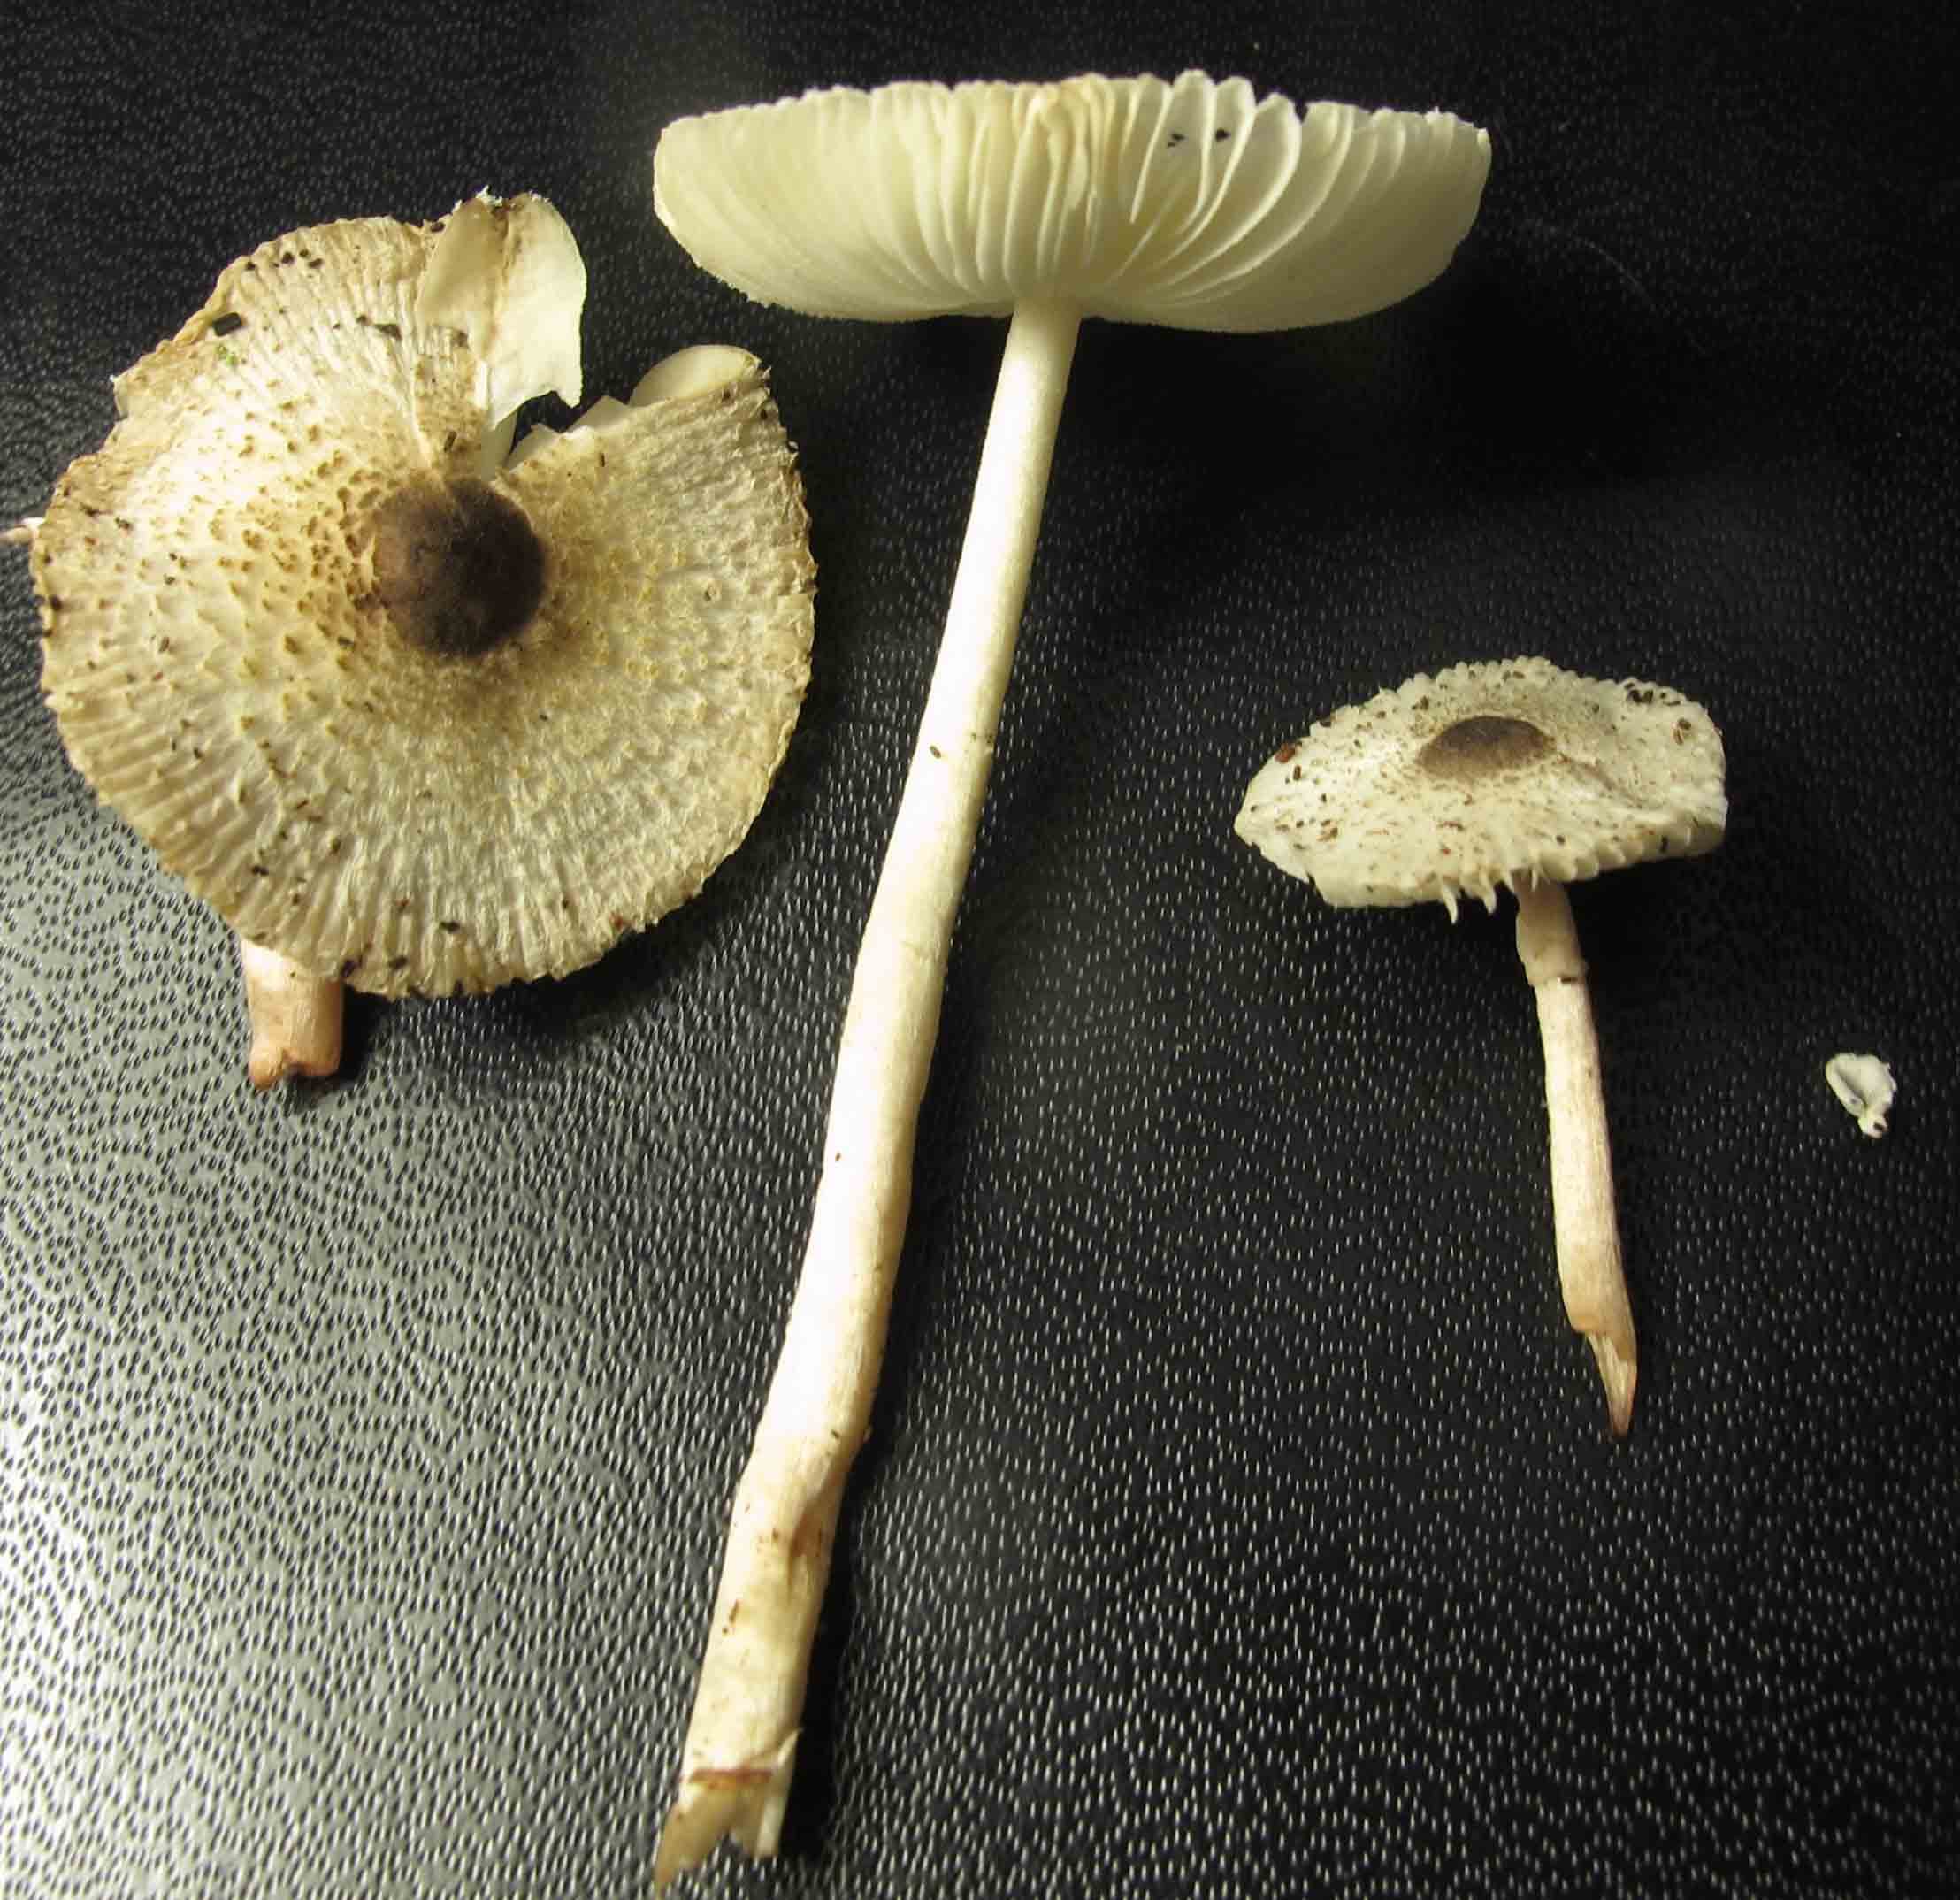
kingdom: Fungi
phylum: Basidiomycota
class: Agaricomycetes
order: Agaricales
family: Agaricaceae
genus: Leucocoprinus
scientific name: Leucocoprinus brebissonii
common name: gråsort silkehat
